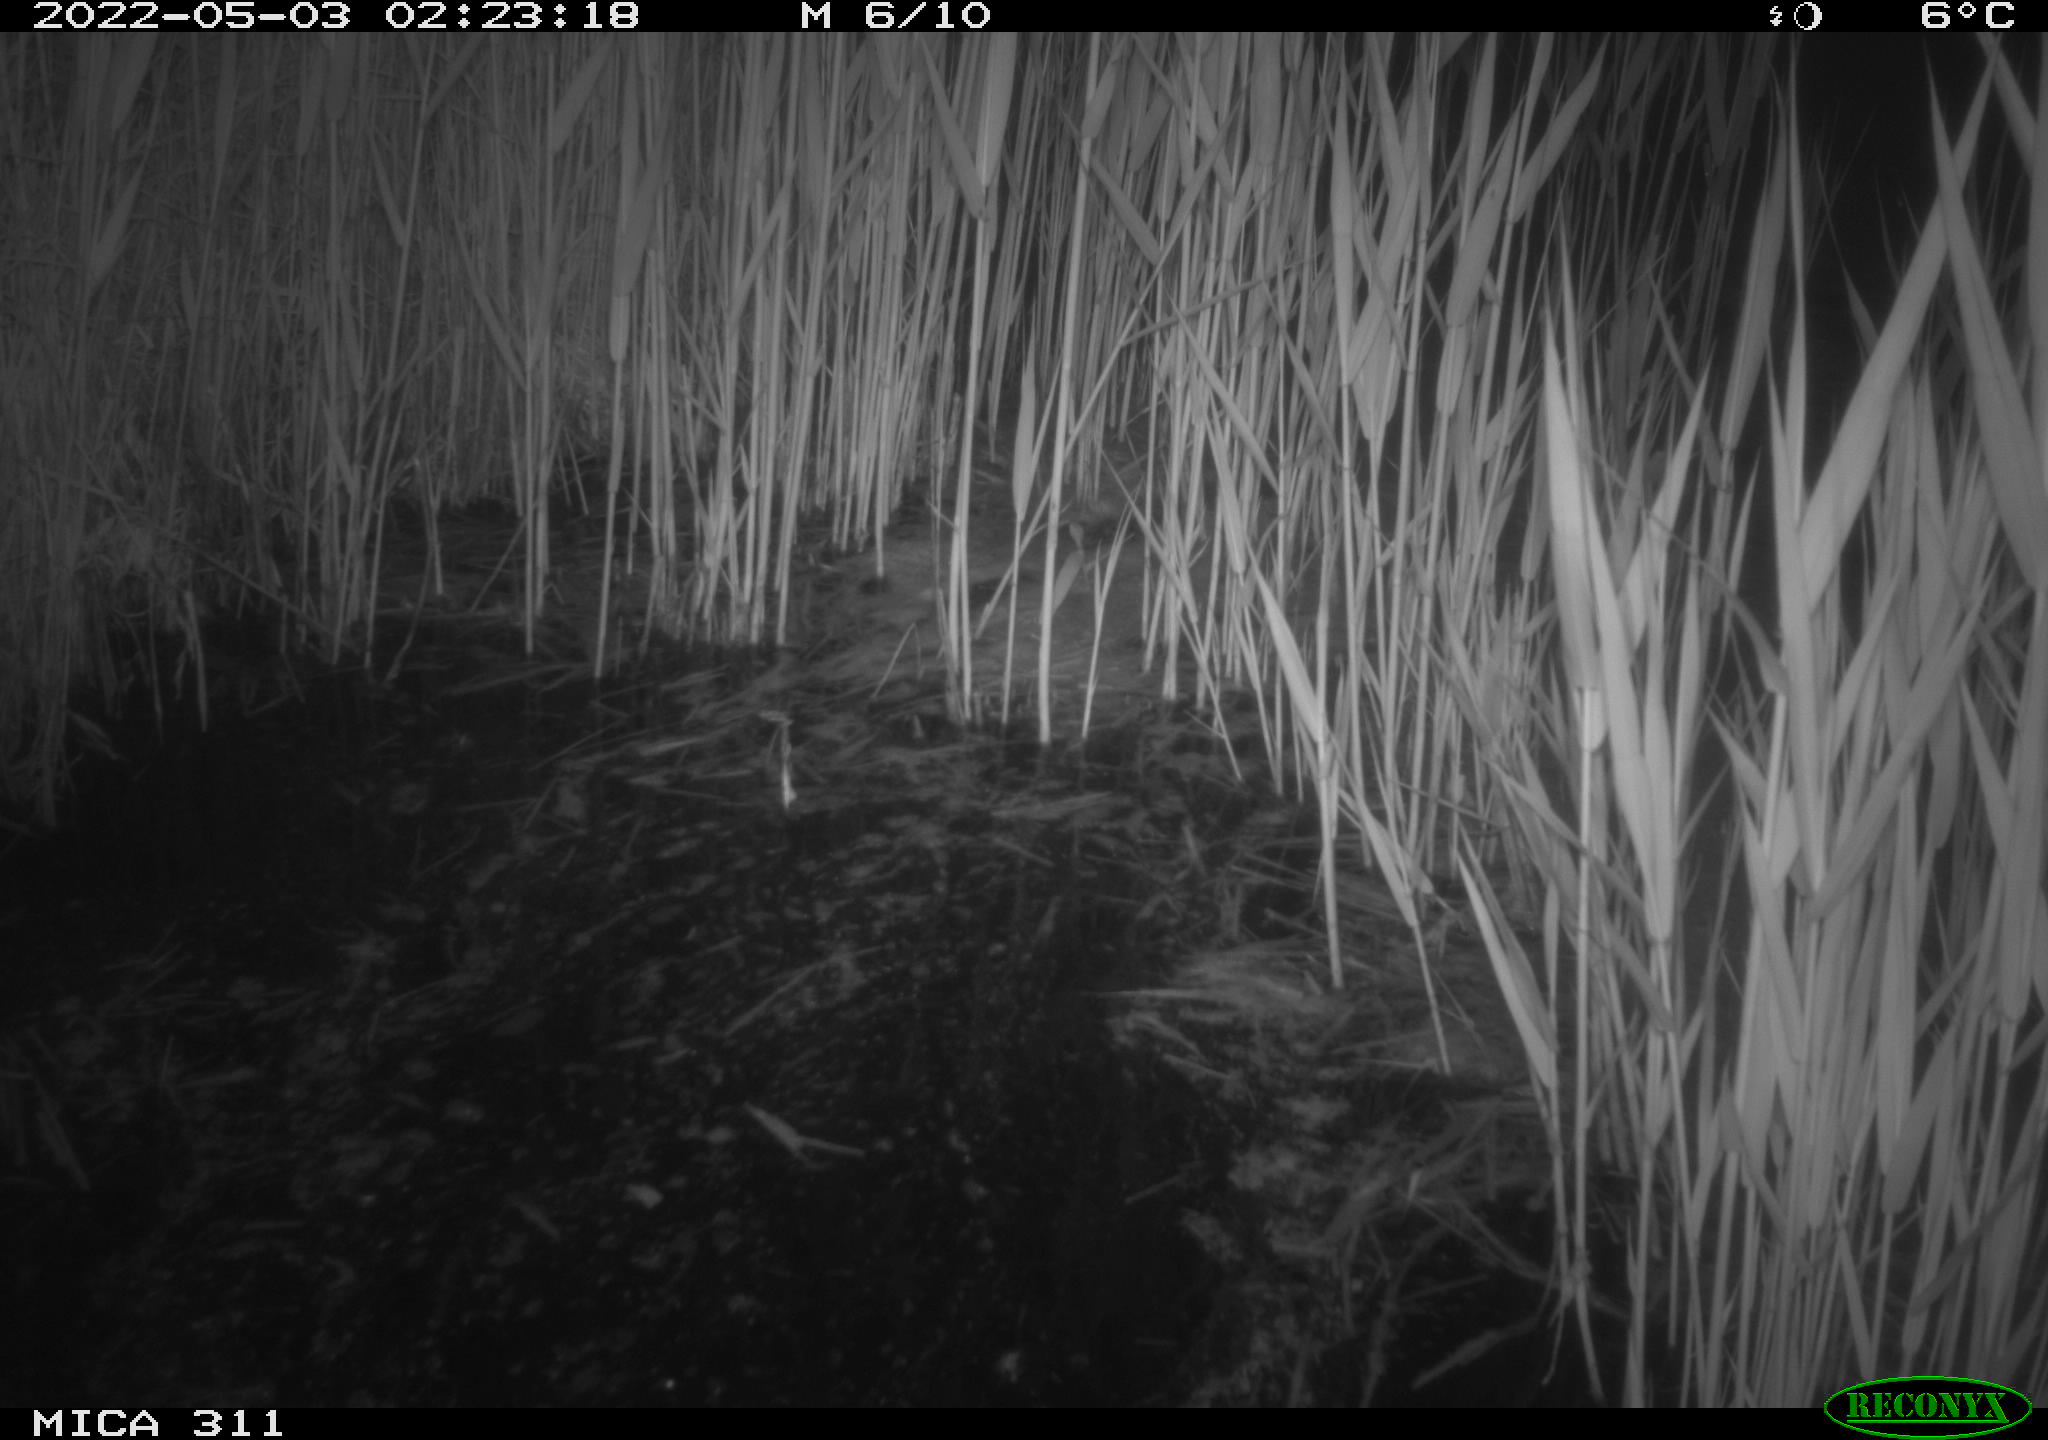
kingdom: Animalia
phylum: Chordata
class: Aves
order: Gruiformes
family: Rallidae
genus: Gallinula
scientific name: Gallinula chloropus
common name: Common moorhen
